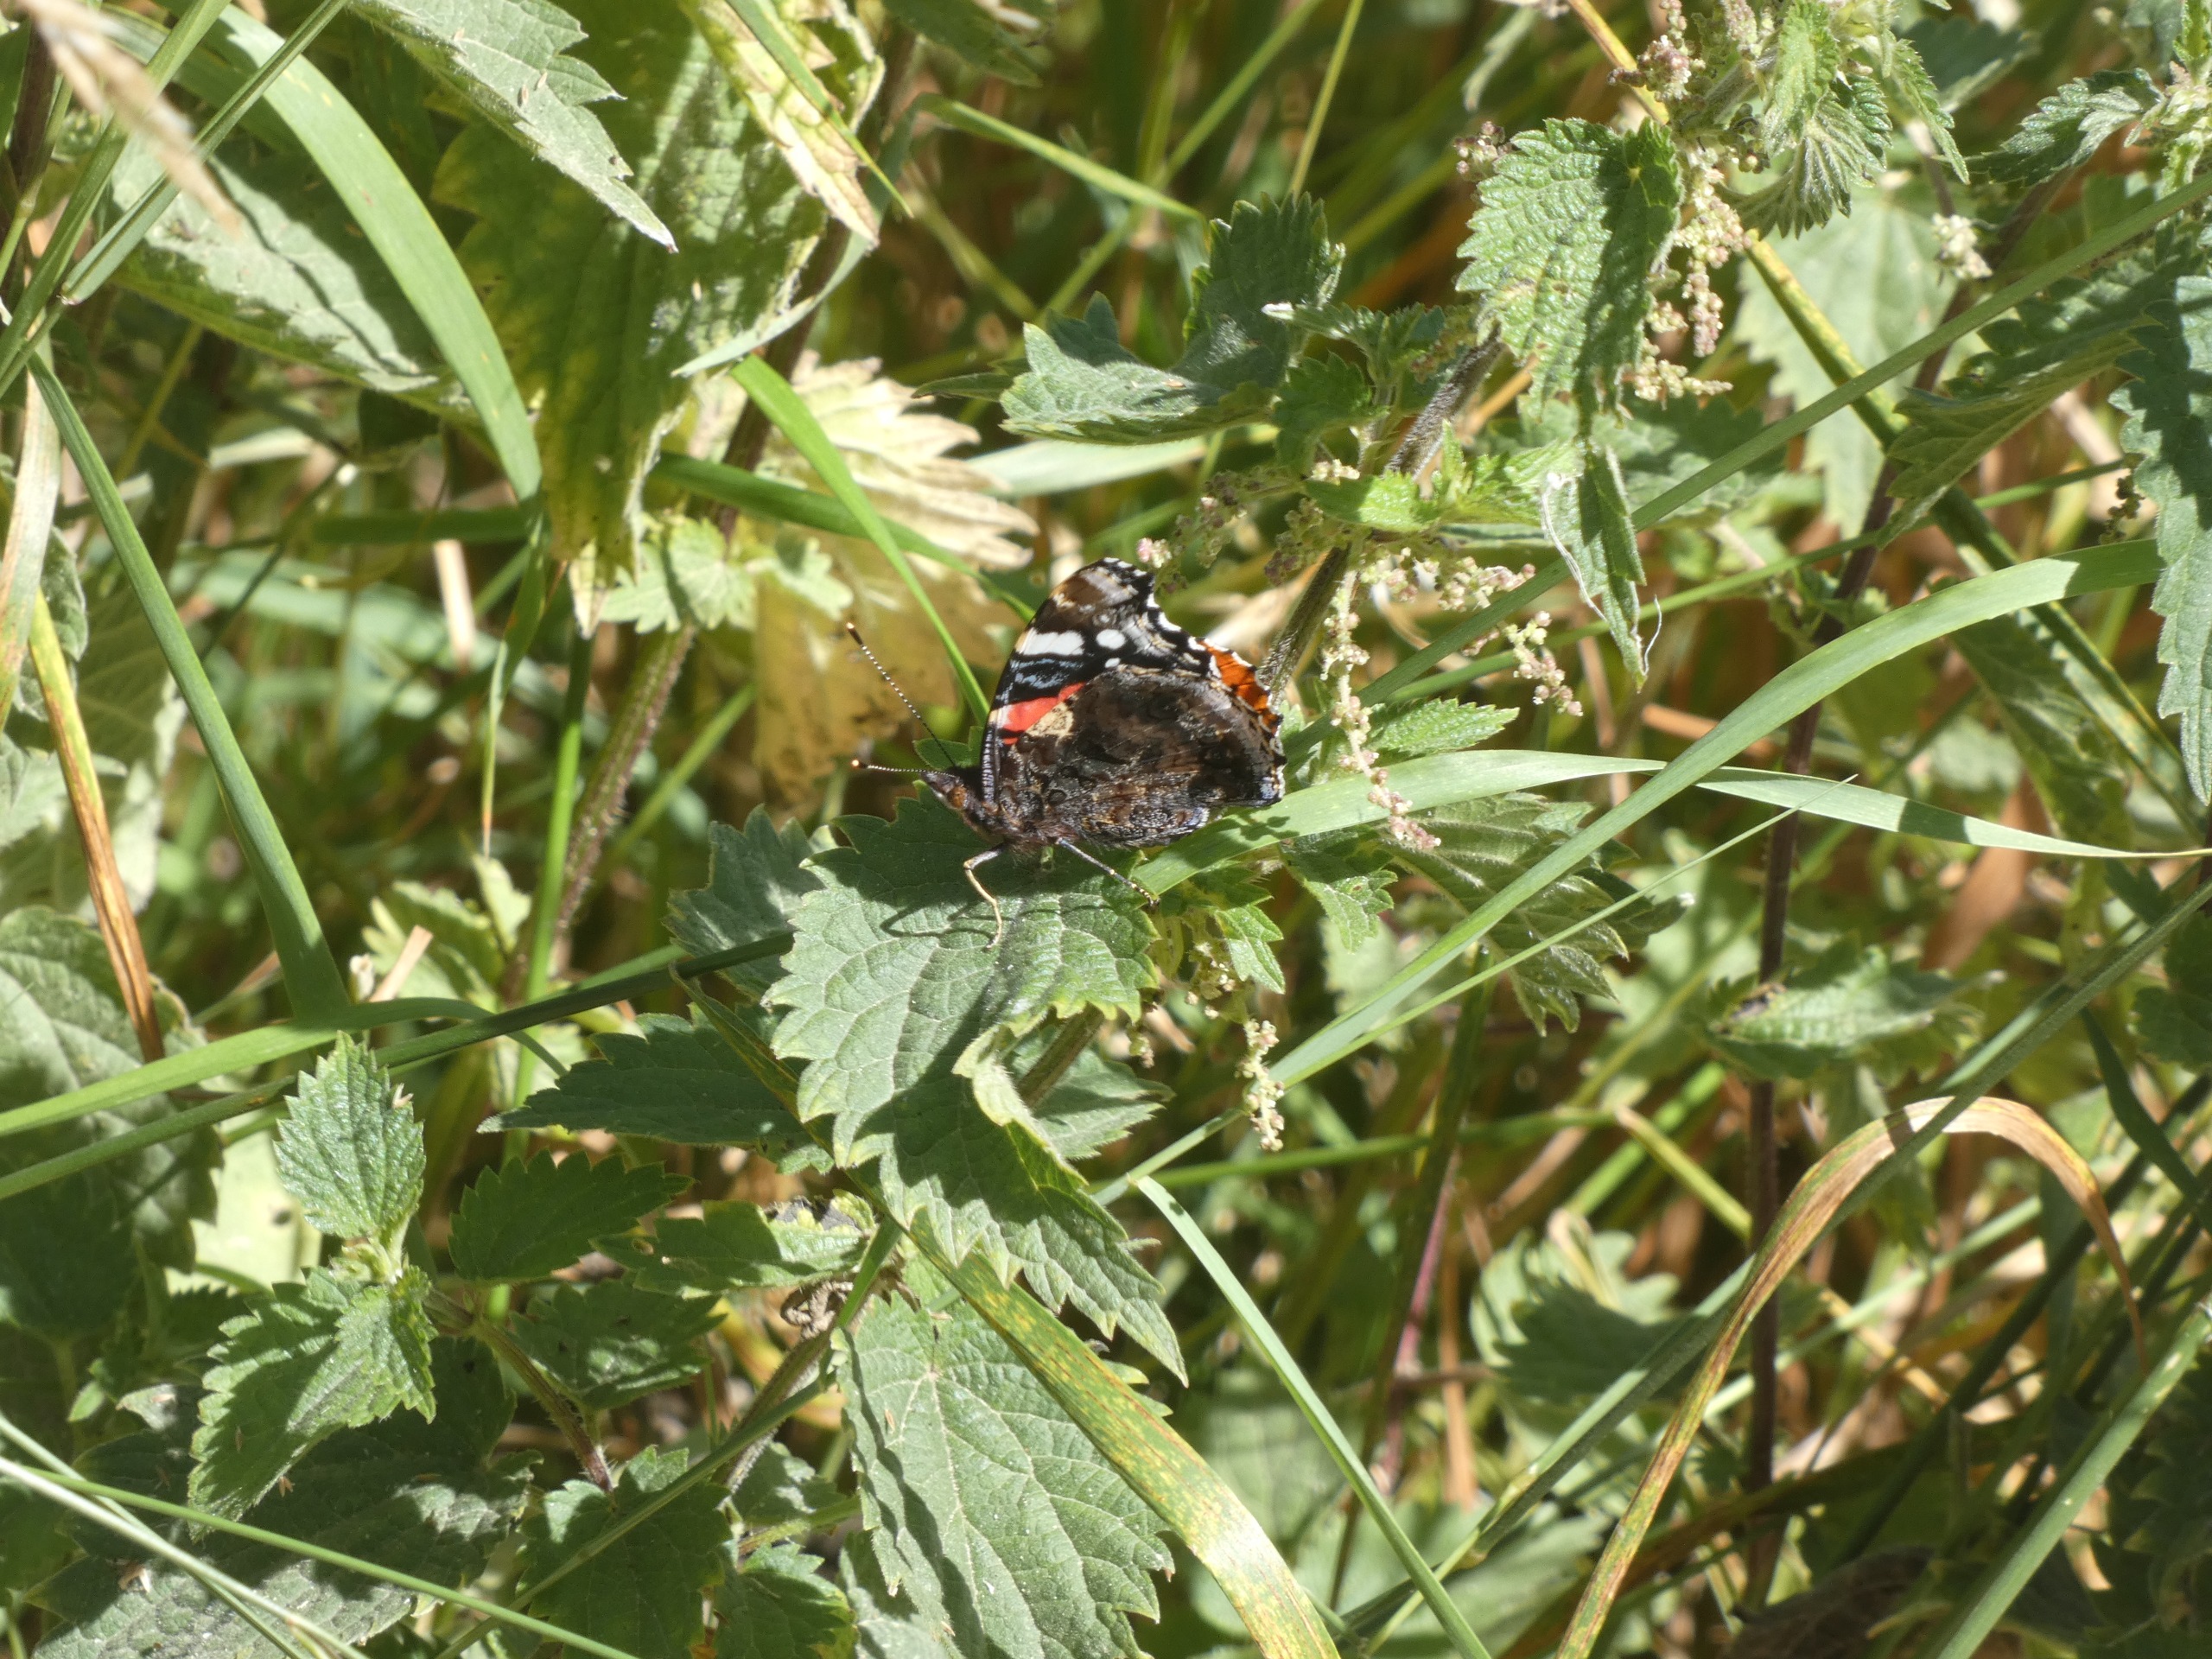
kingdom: Animalia
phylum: Arthropoda
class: Insecta
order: Lepidoptera
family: Nymphalidae
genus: Vanessa
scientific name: Vanessa atalanta
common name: Admiral
